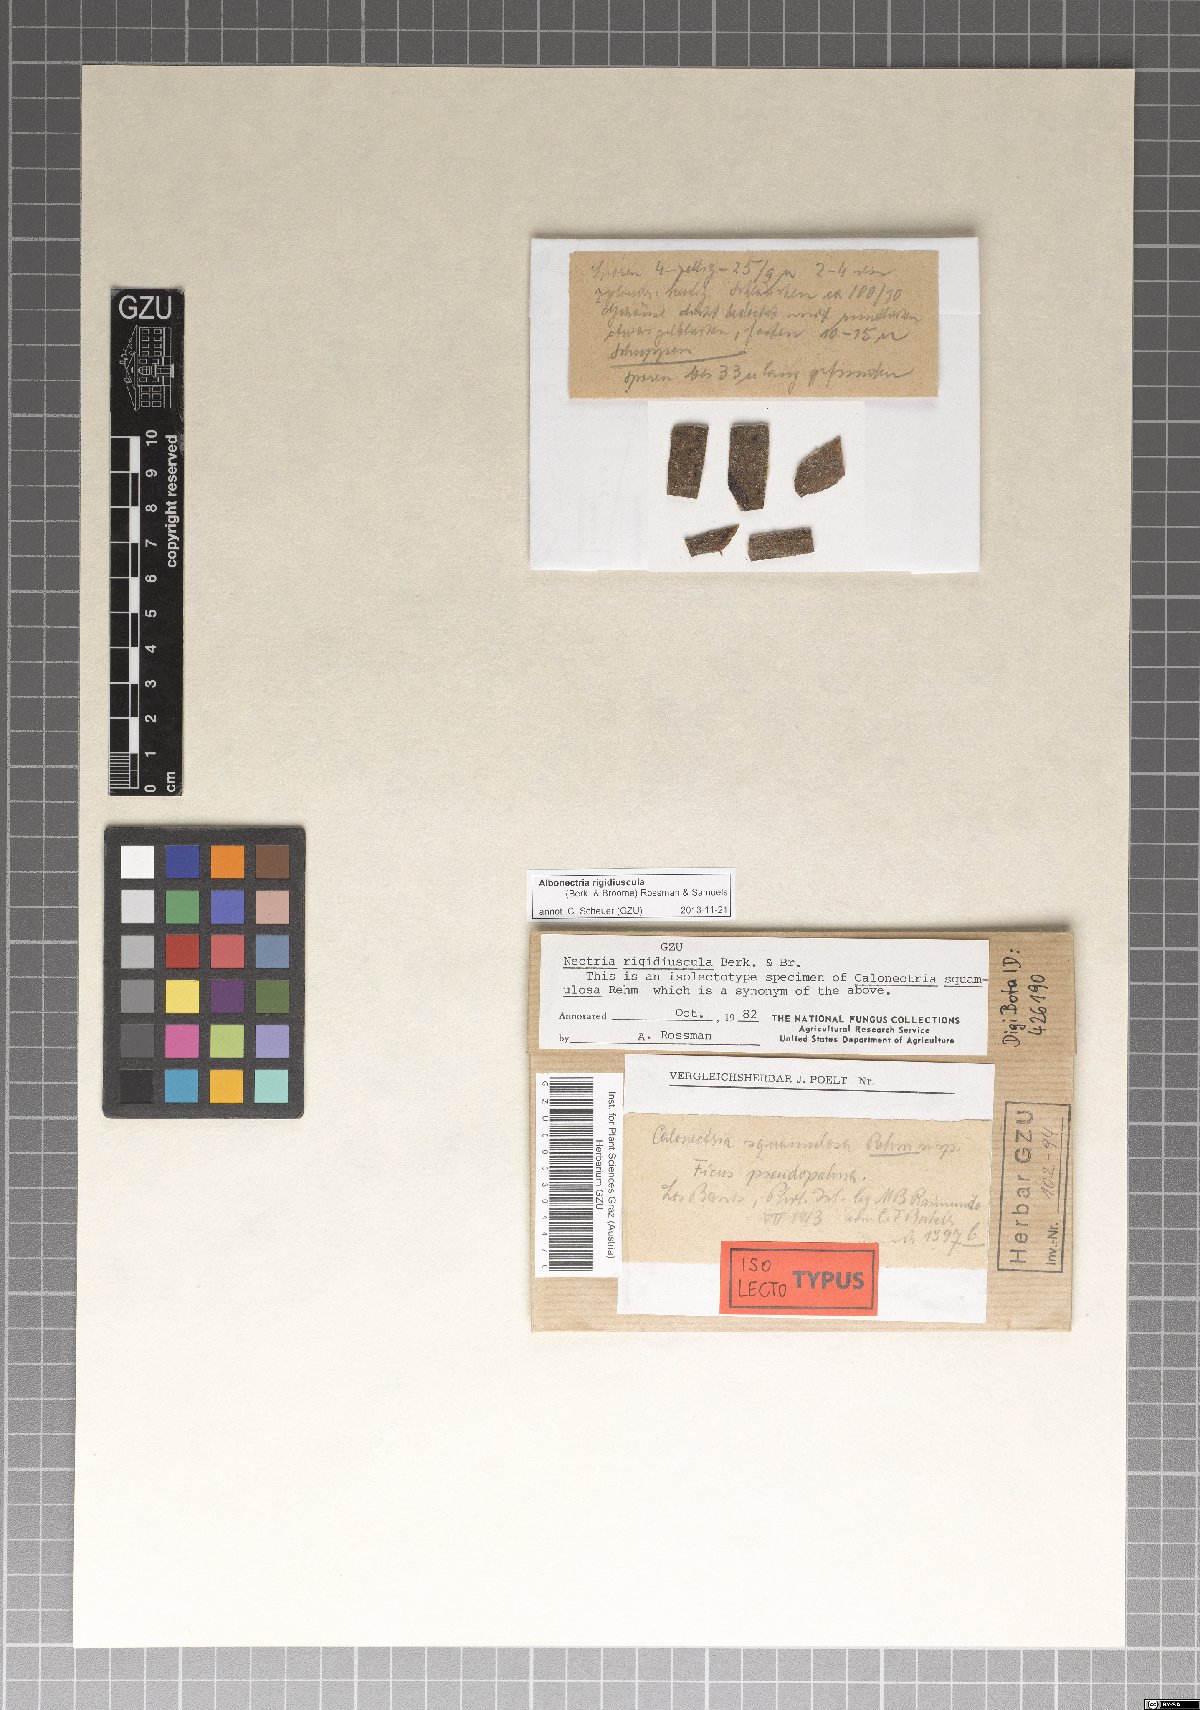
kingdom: Fungi
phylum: Ascomycota
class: Sordariomycetes
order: Hypocreales
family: Nectriaceae
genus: Calonectria
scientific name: Calonectria
